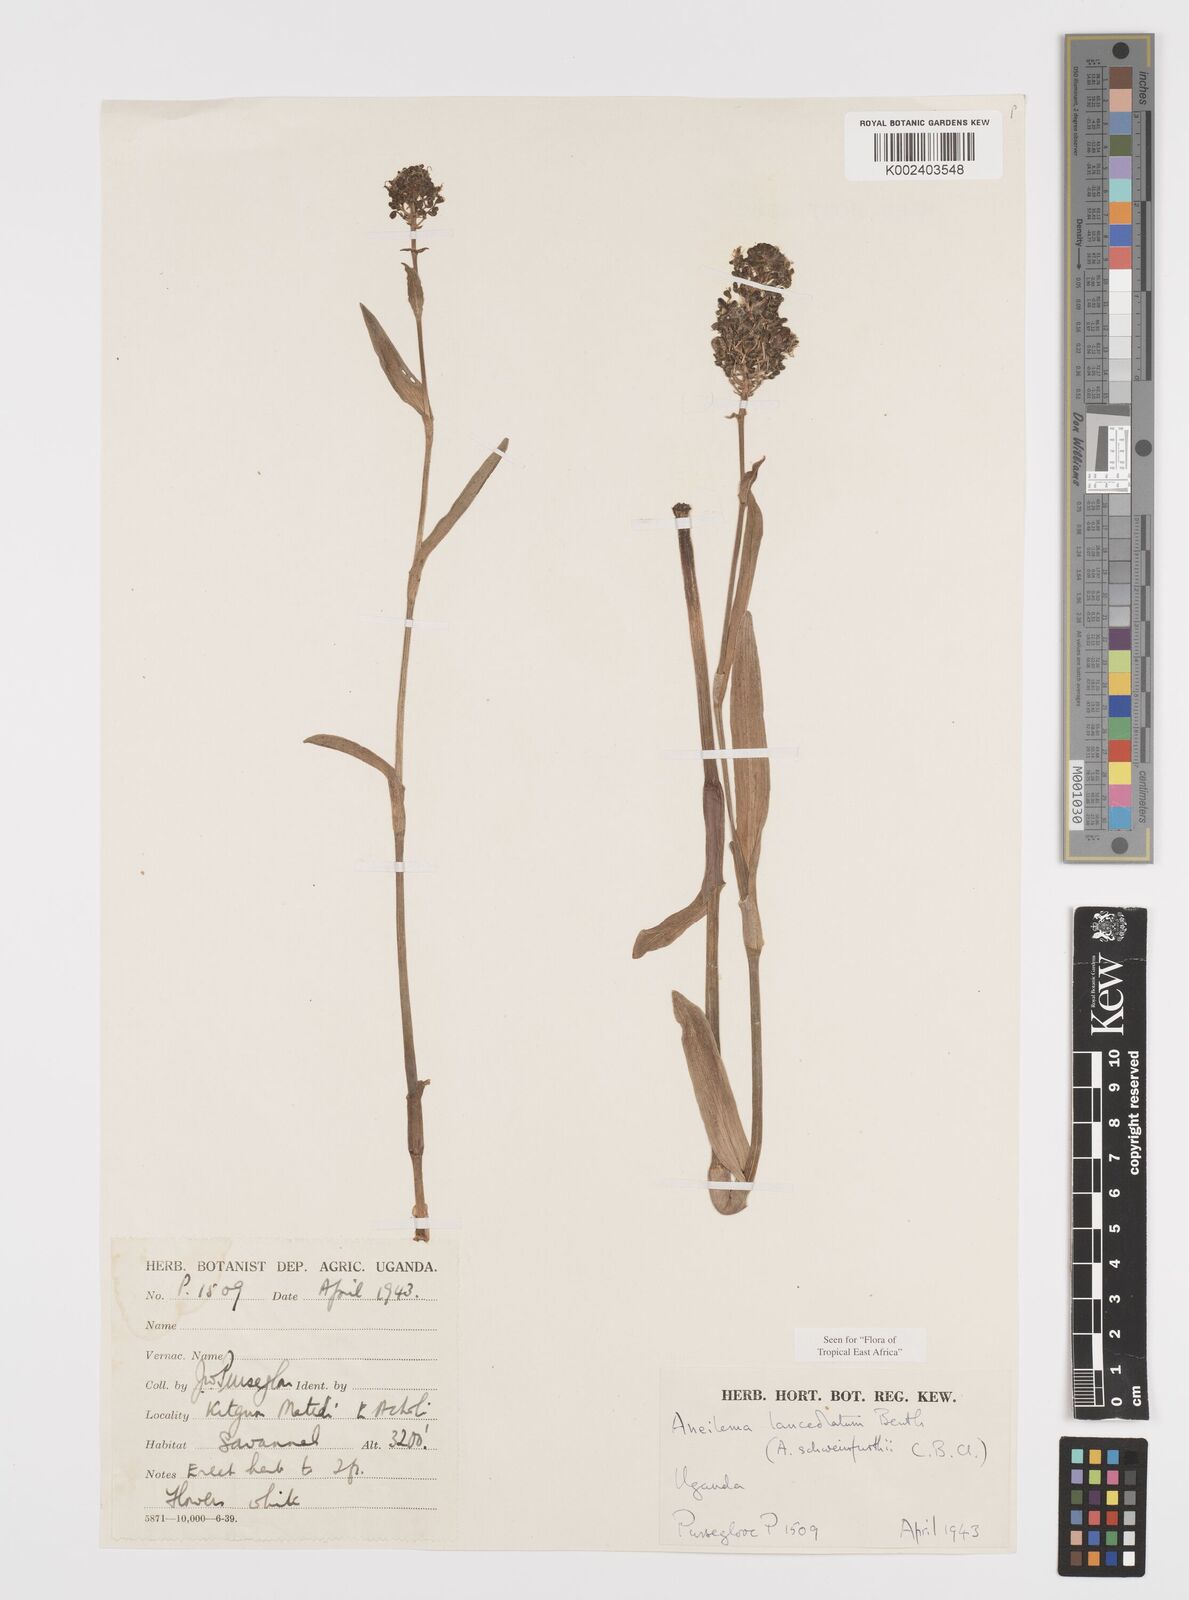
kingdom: Plantae
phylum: Tracheophyta
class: Liliopsida
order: Commelinales
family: Commelinaceae
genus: Aneilema
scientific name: Aneilema lanceolatum
